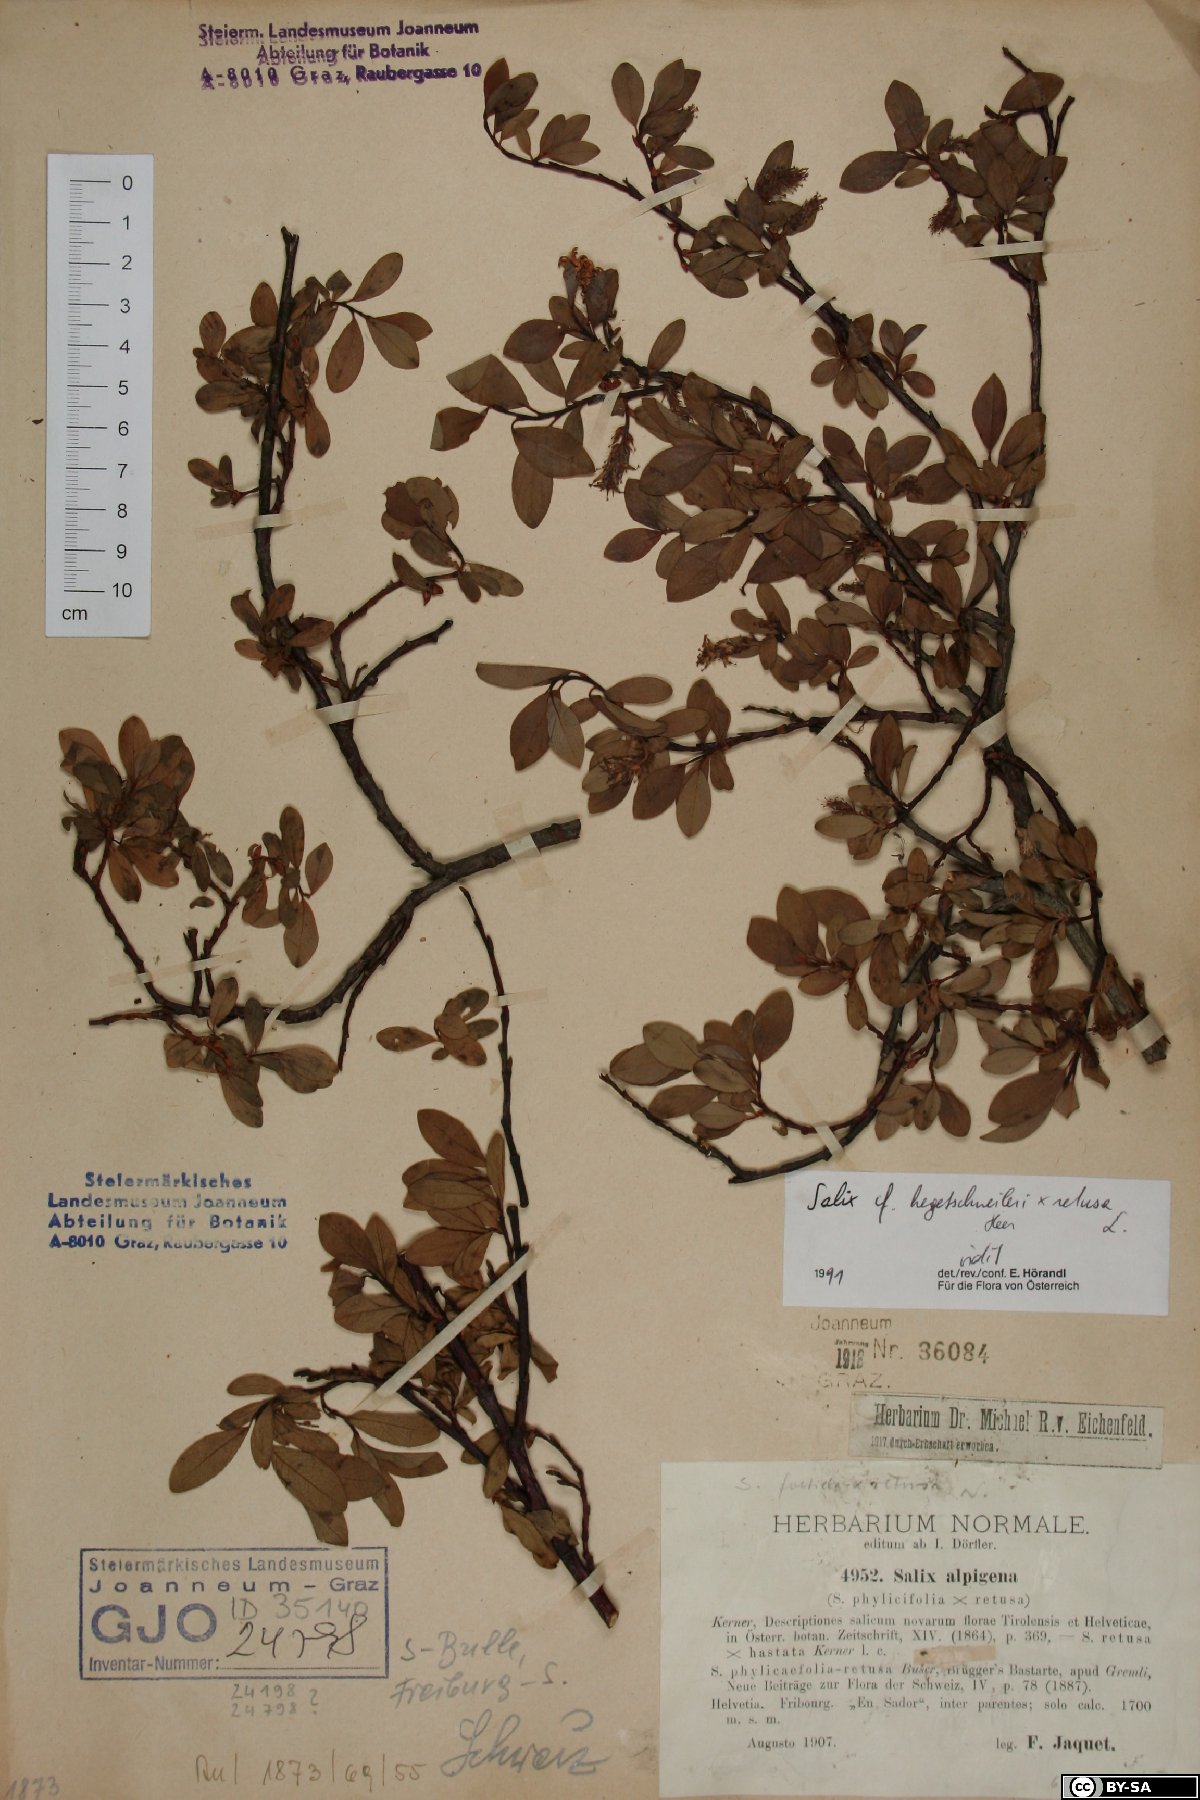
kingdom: Plantae
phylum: Tracheophyta
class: Magnoliopsida
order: Malpighiales
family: Salicaceae
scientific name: Salicaceae
